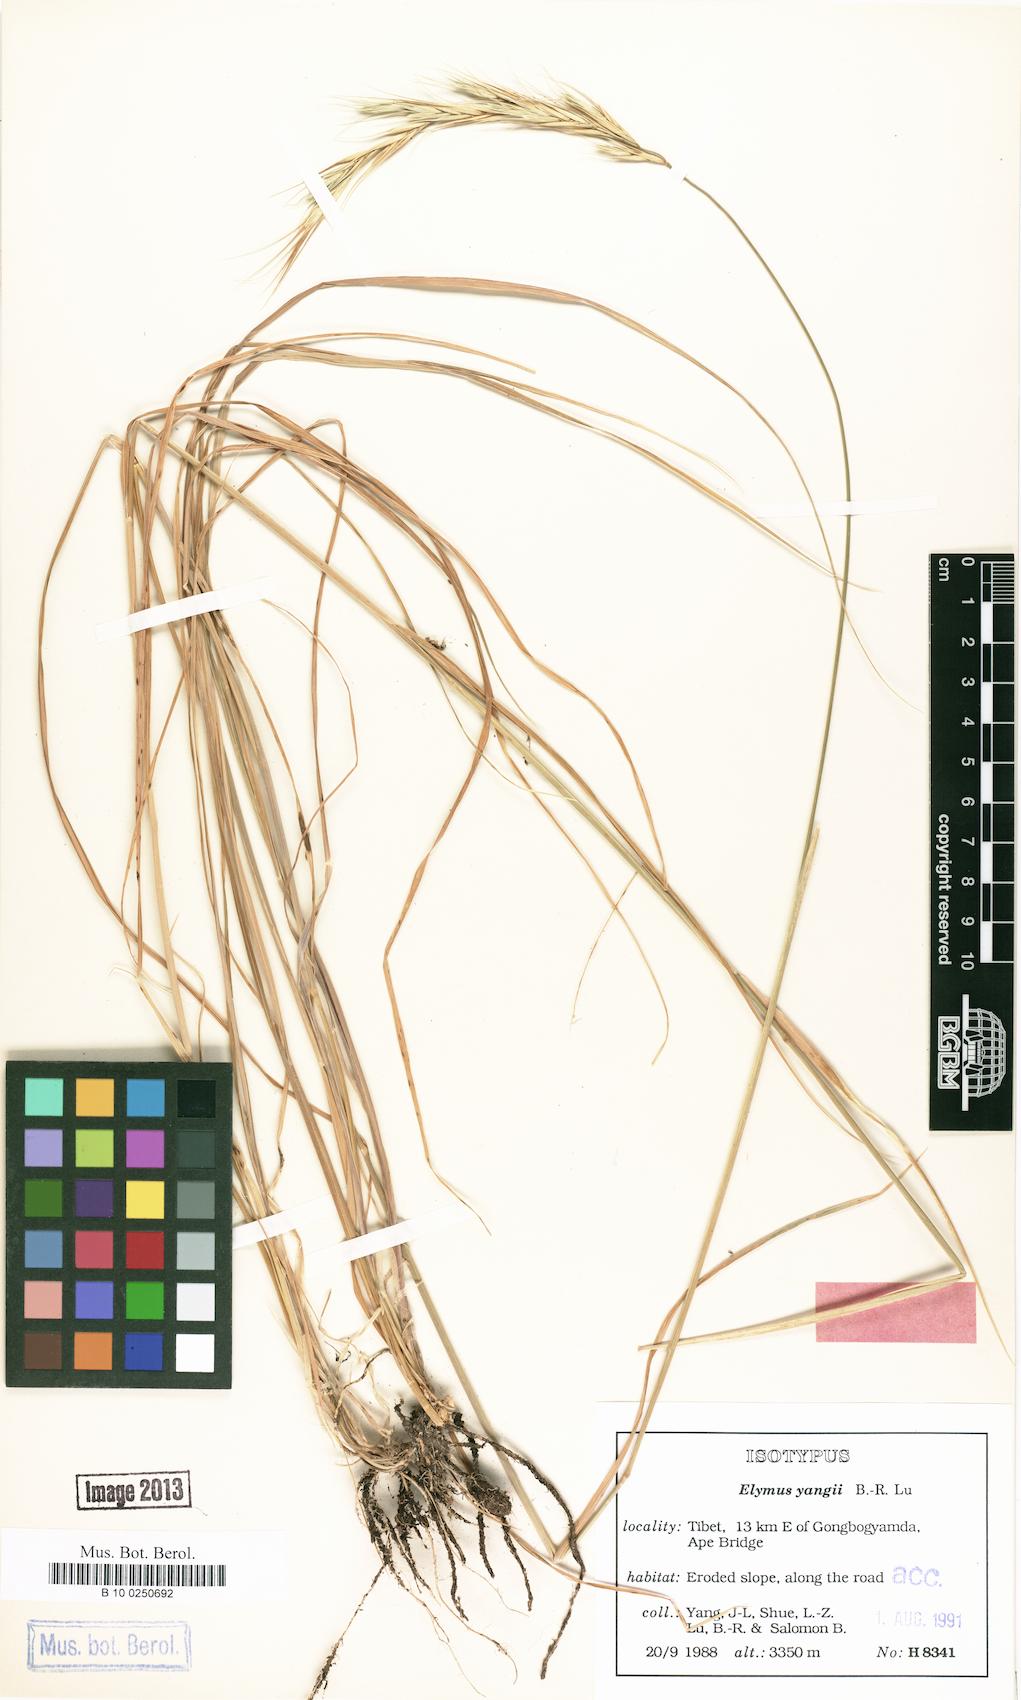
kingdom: Plantae
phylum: Tracheophyta
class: Liliopsida
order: Poales
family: Poaceae
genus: Elymus
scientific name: Elymus yangiae
